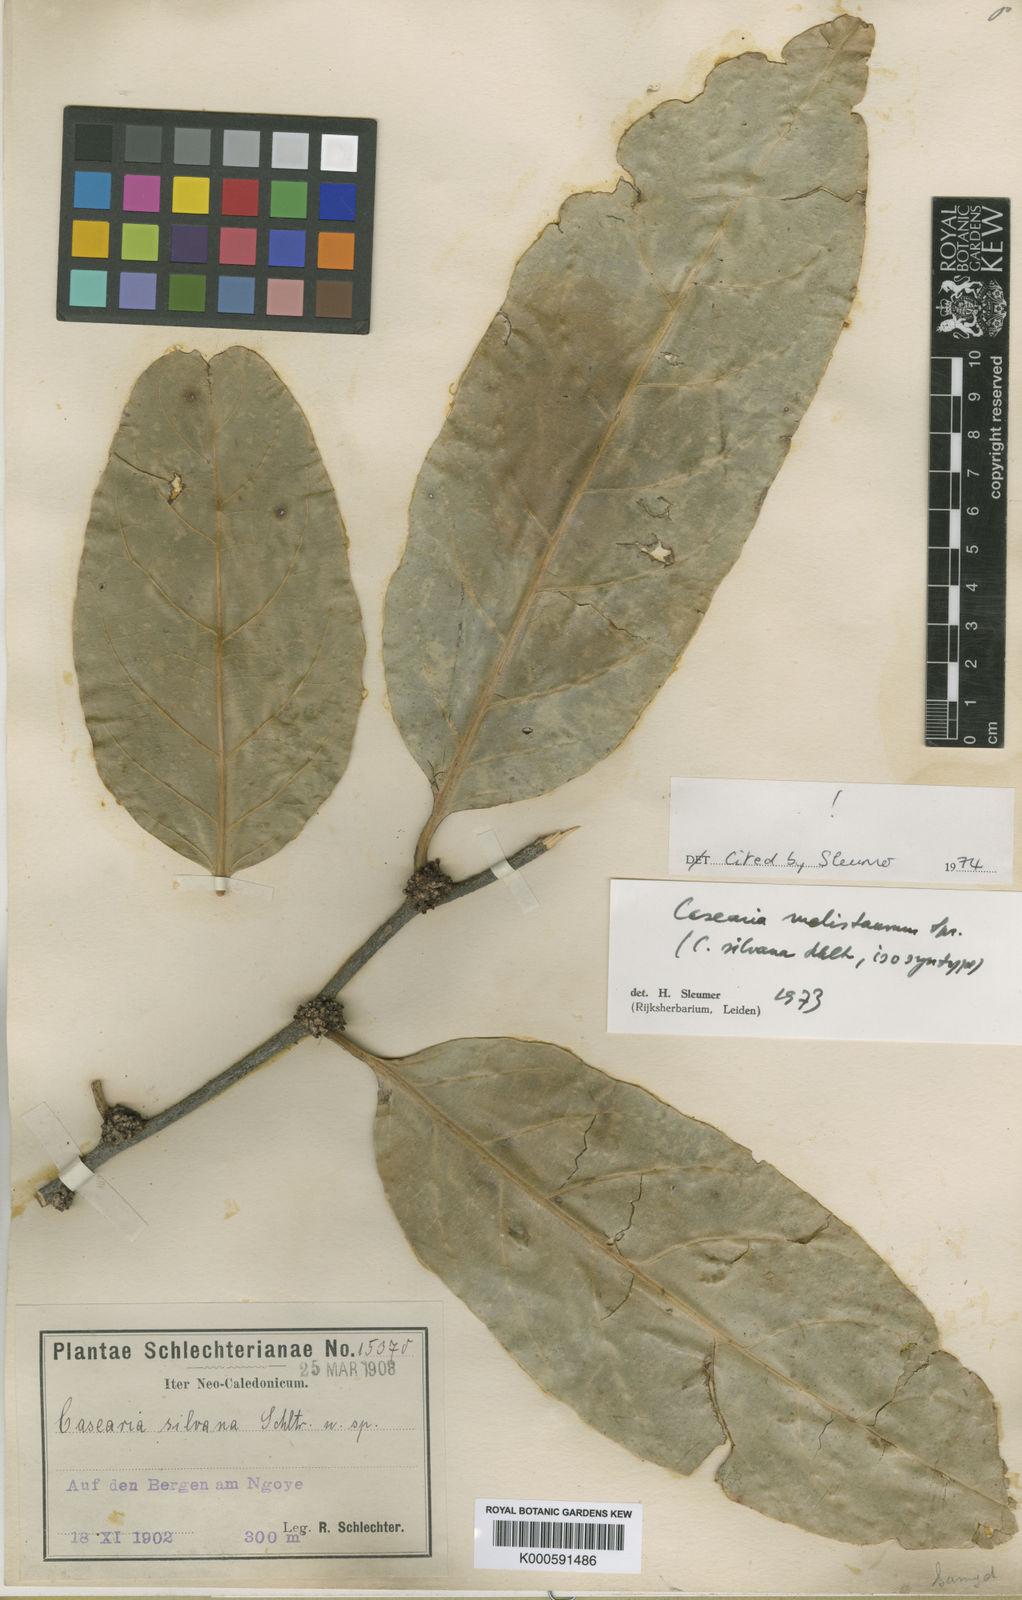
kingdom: Plantae
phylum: Tracheophyta
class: Magnoliopsida
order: Malpighiales
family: Salicaceae
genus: Casearia
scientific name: Casearia silvana
